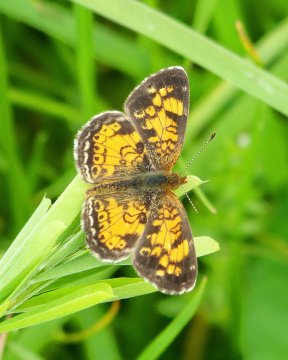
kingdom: Animalia
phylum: Arthropoda
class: Insecta
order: Lepidoptera
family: Nymphalidae
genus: Phyciodes
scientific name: Phyciodes tharos
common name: Pearl Crescent
